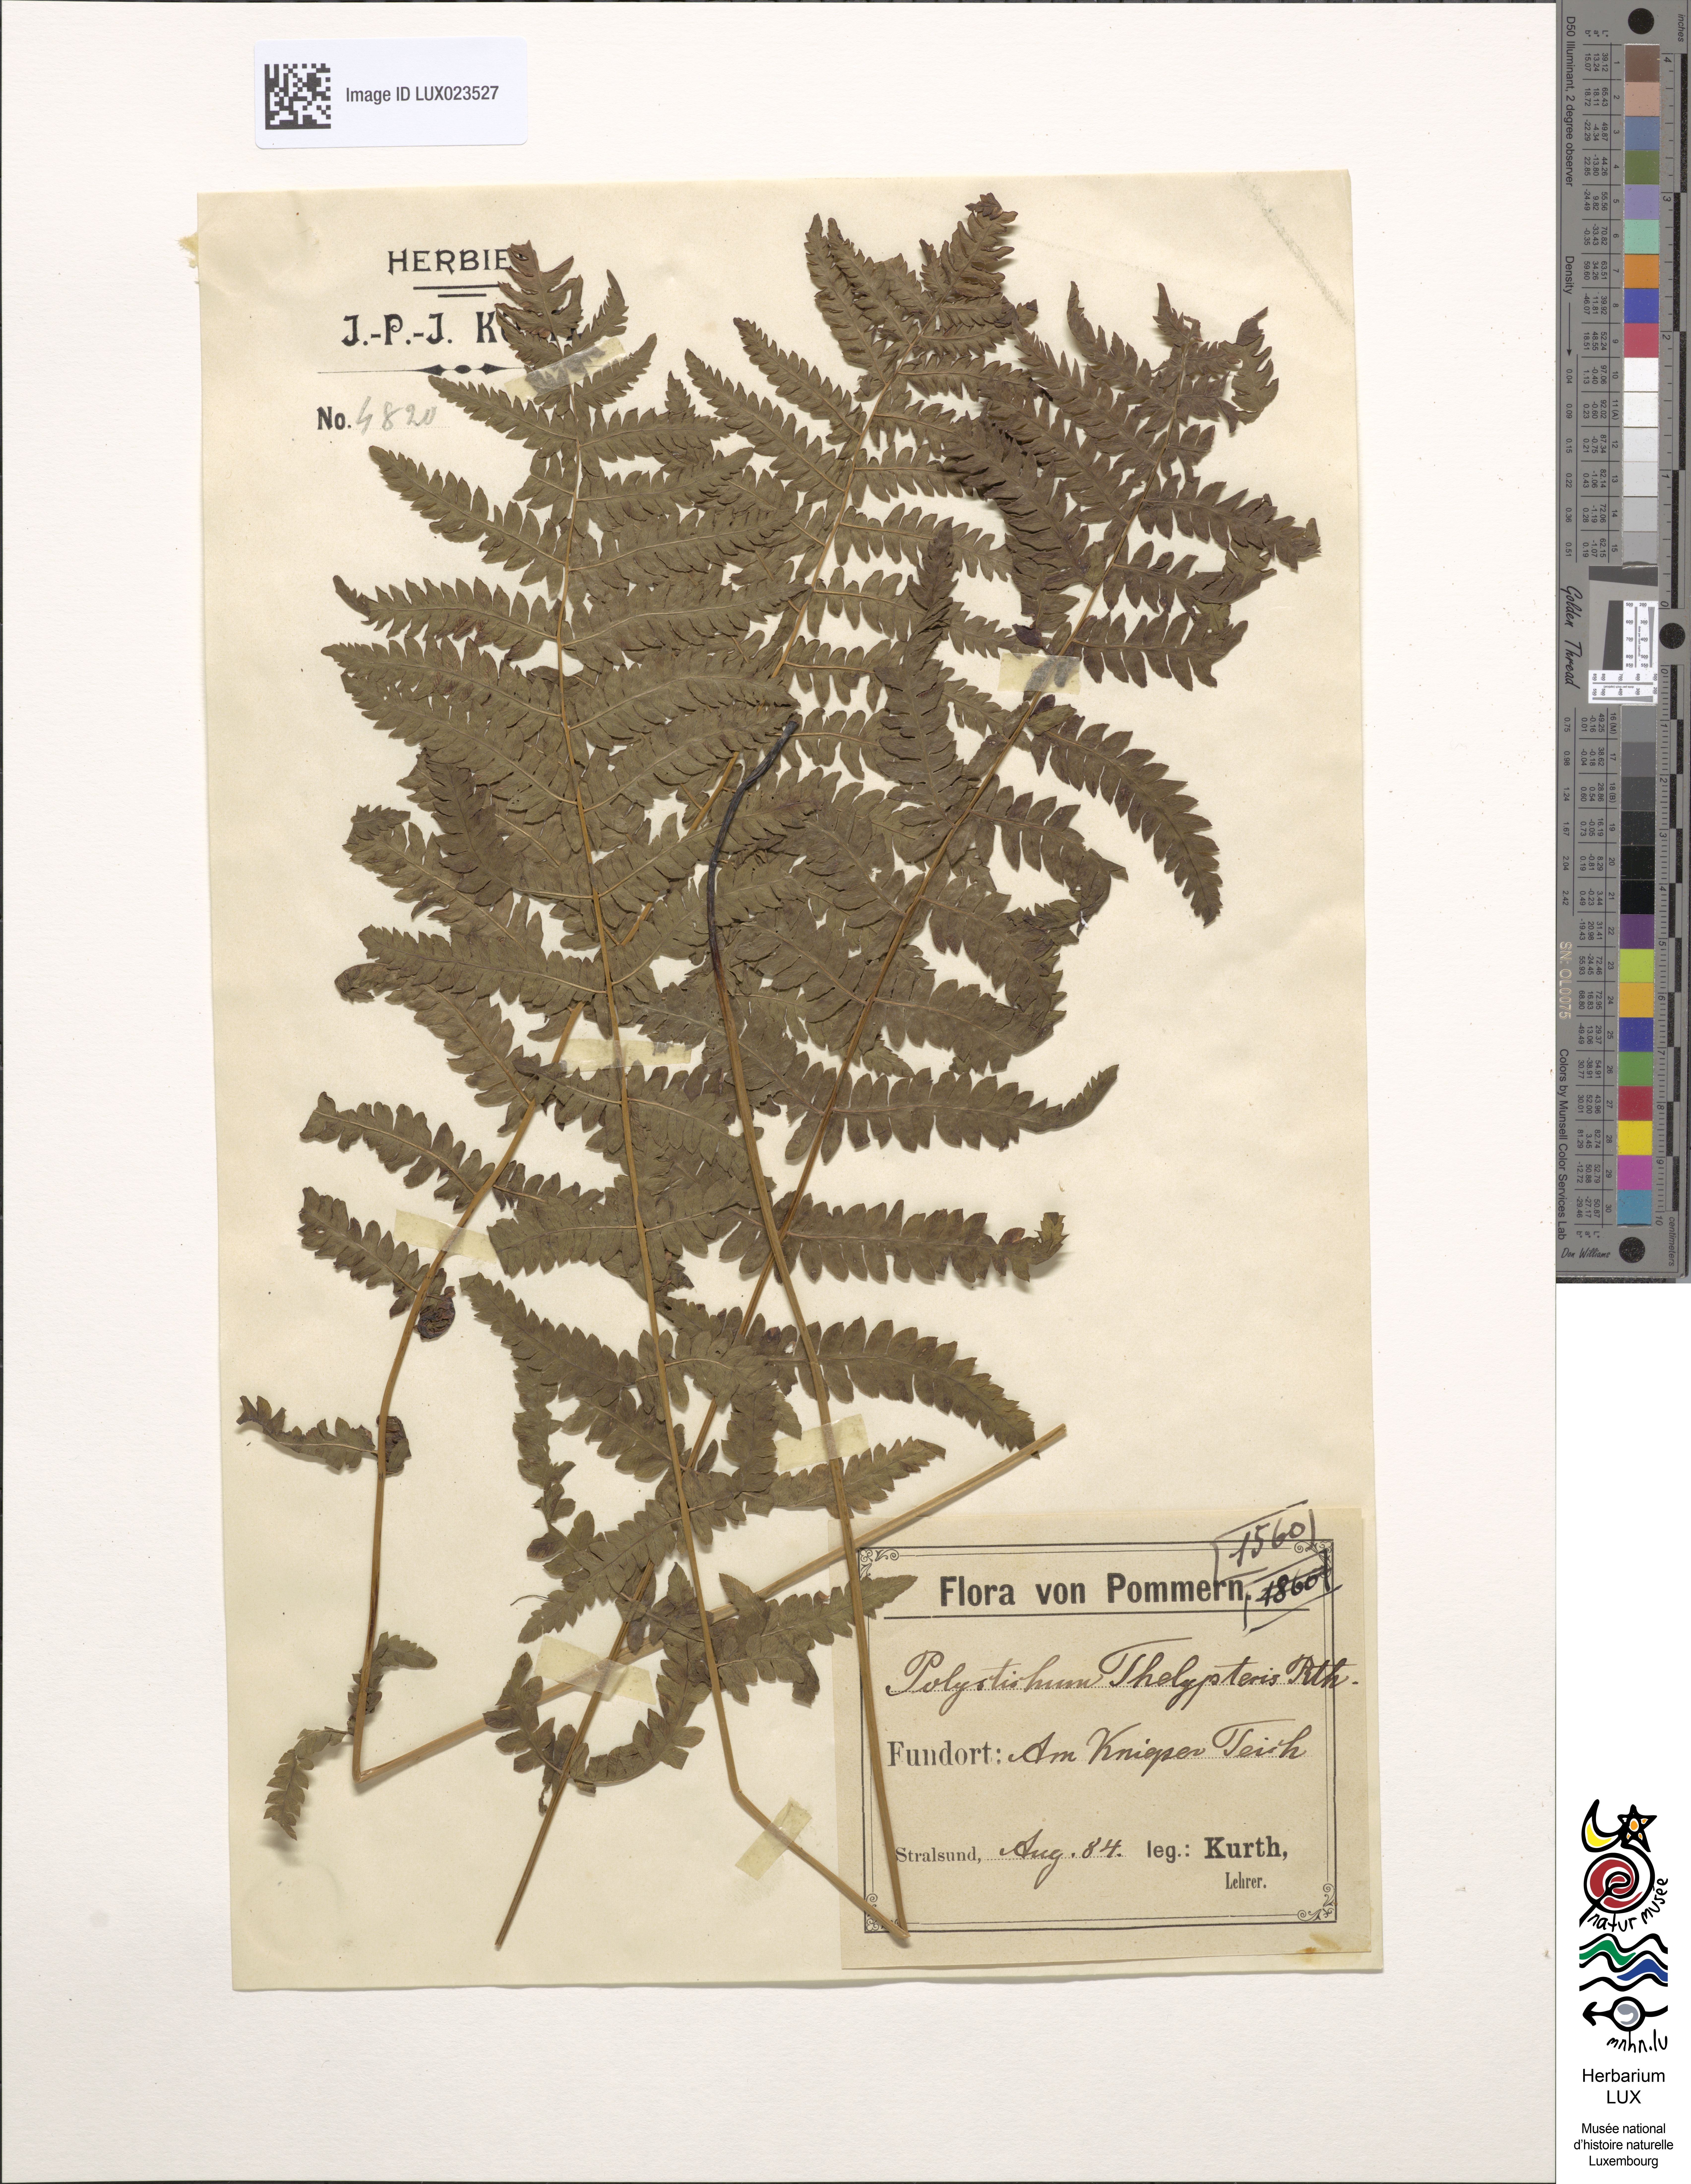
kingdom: Plantae
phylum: Tracheophyta
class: Polypodiopsida
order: Polypodiales
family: Thelypteridaceae
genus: Thelypteris
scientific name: Thelypteris palustris
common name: Marsh fern
